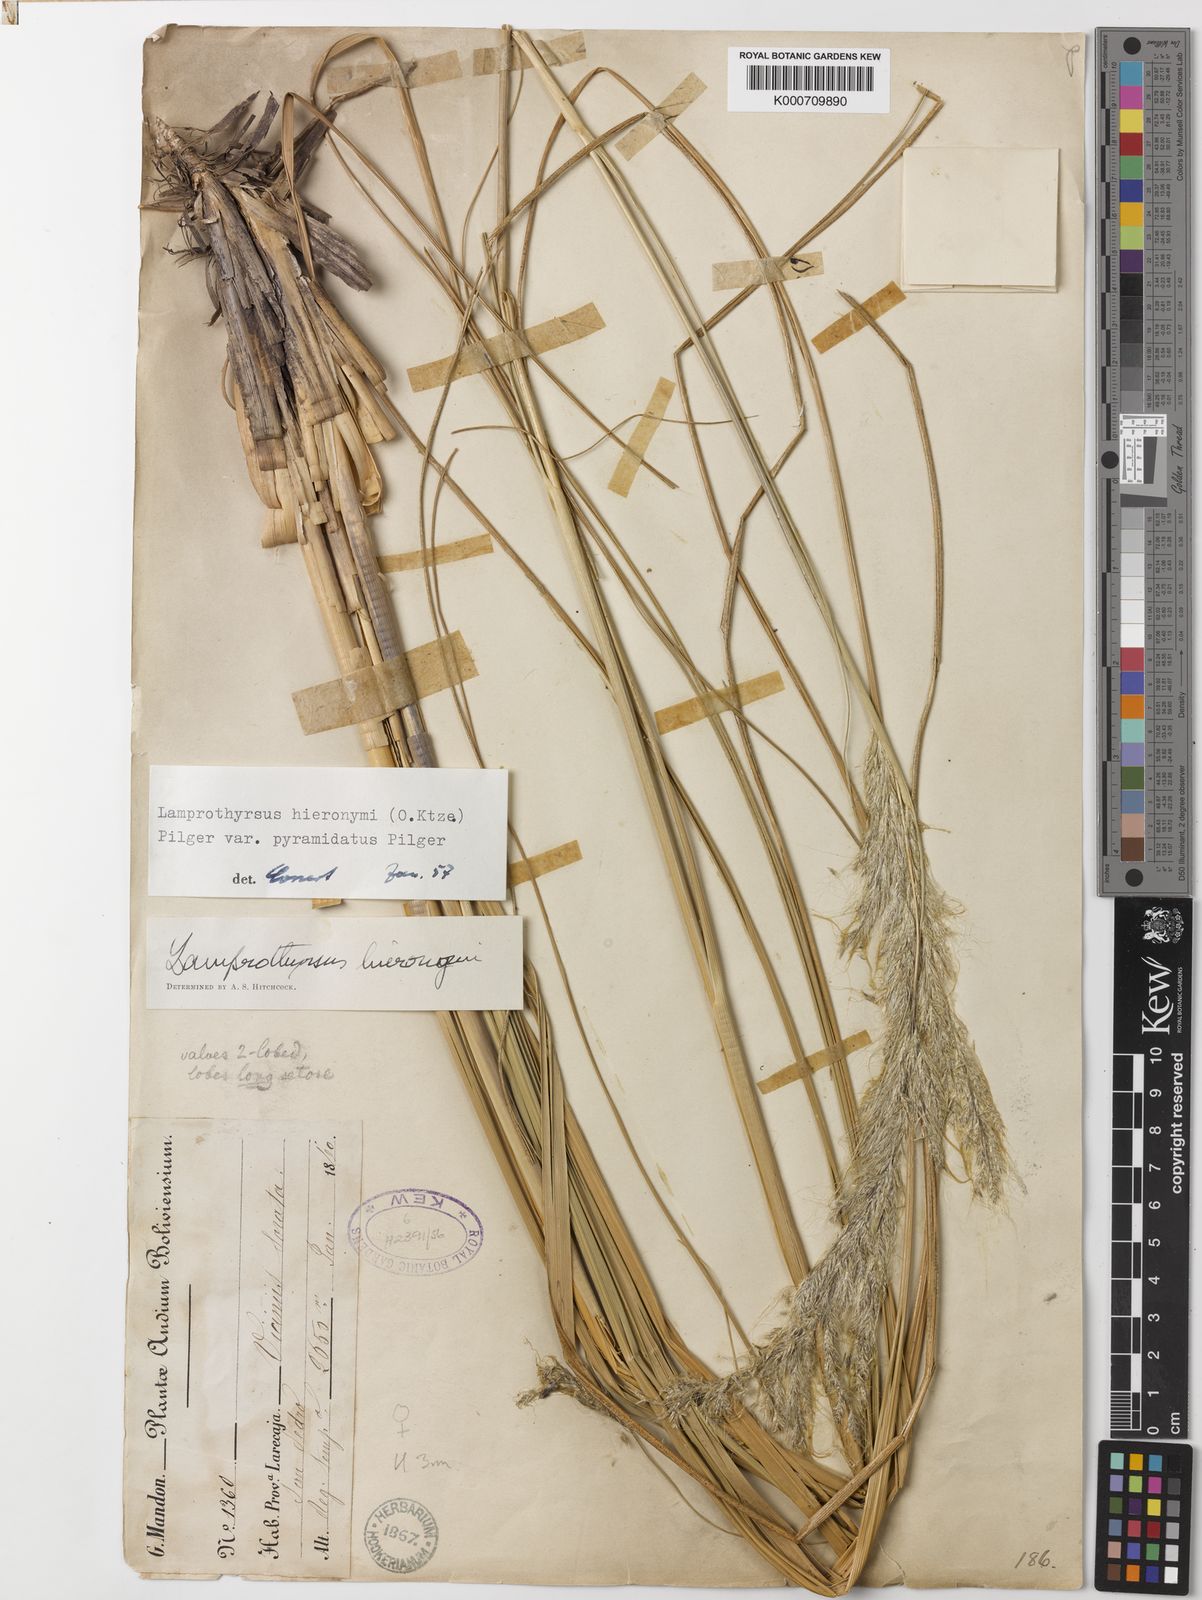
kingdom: Plantae
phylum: Tracheophyta
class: Liliopsida
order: Poales
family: Poaceae
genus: Cortaderia
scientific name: Cortaderia hieronymi
